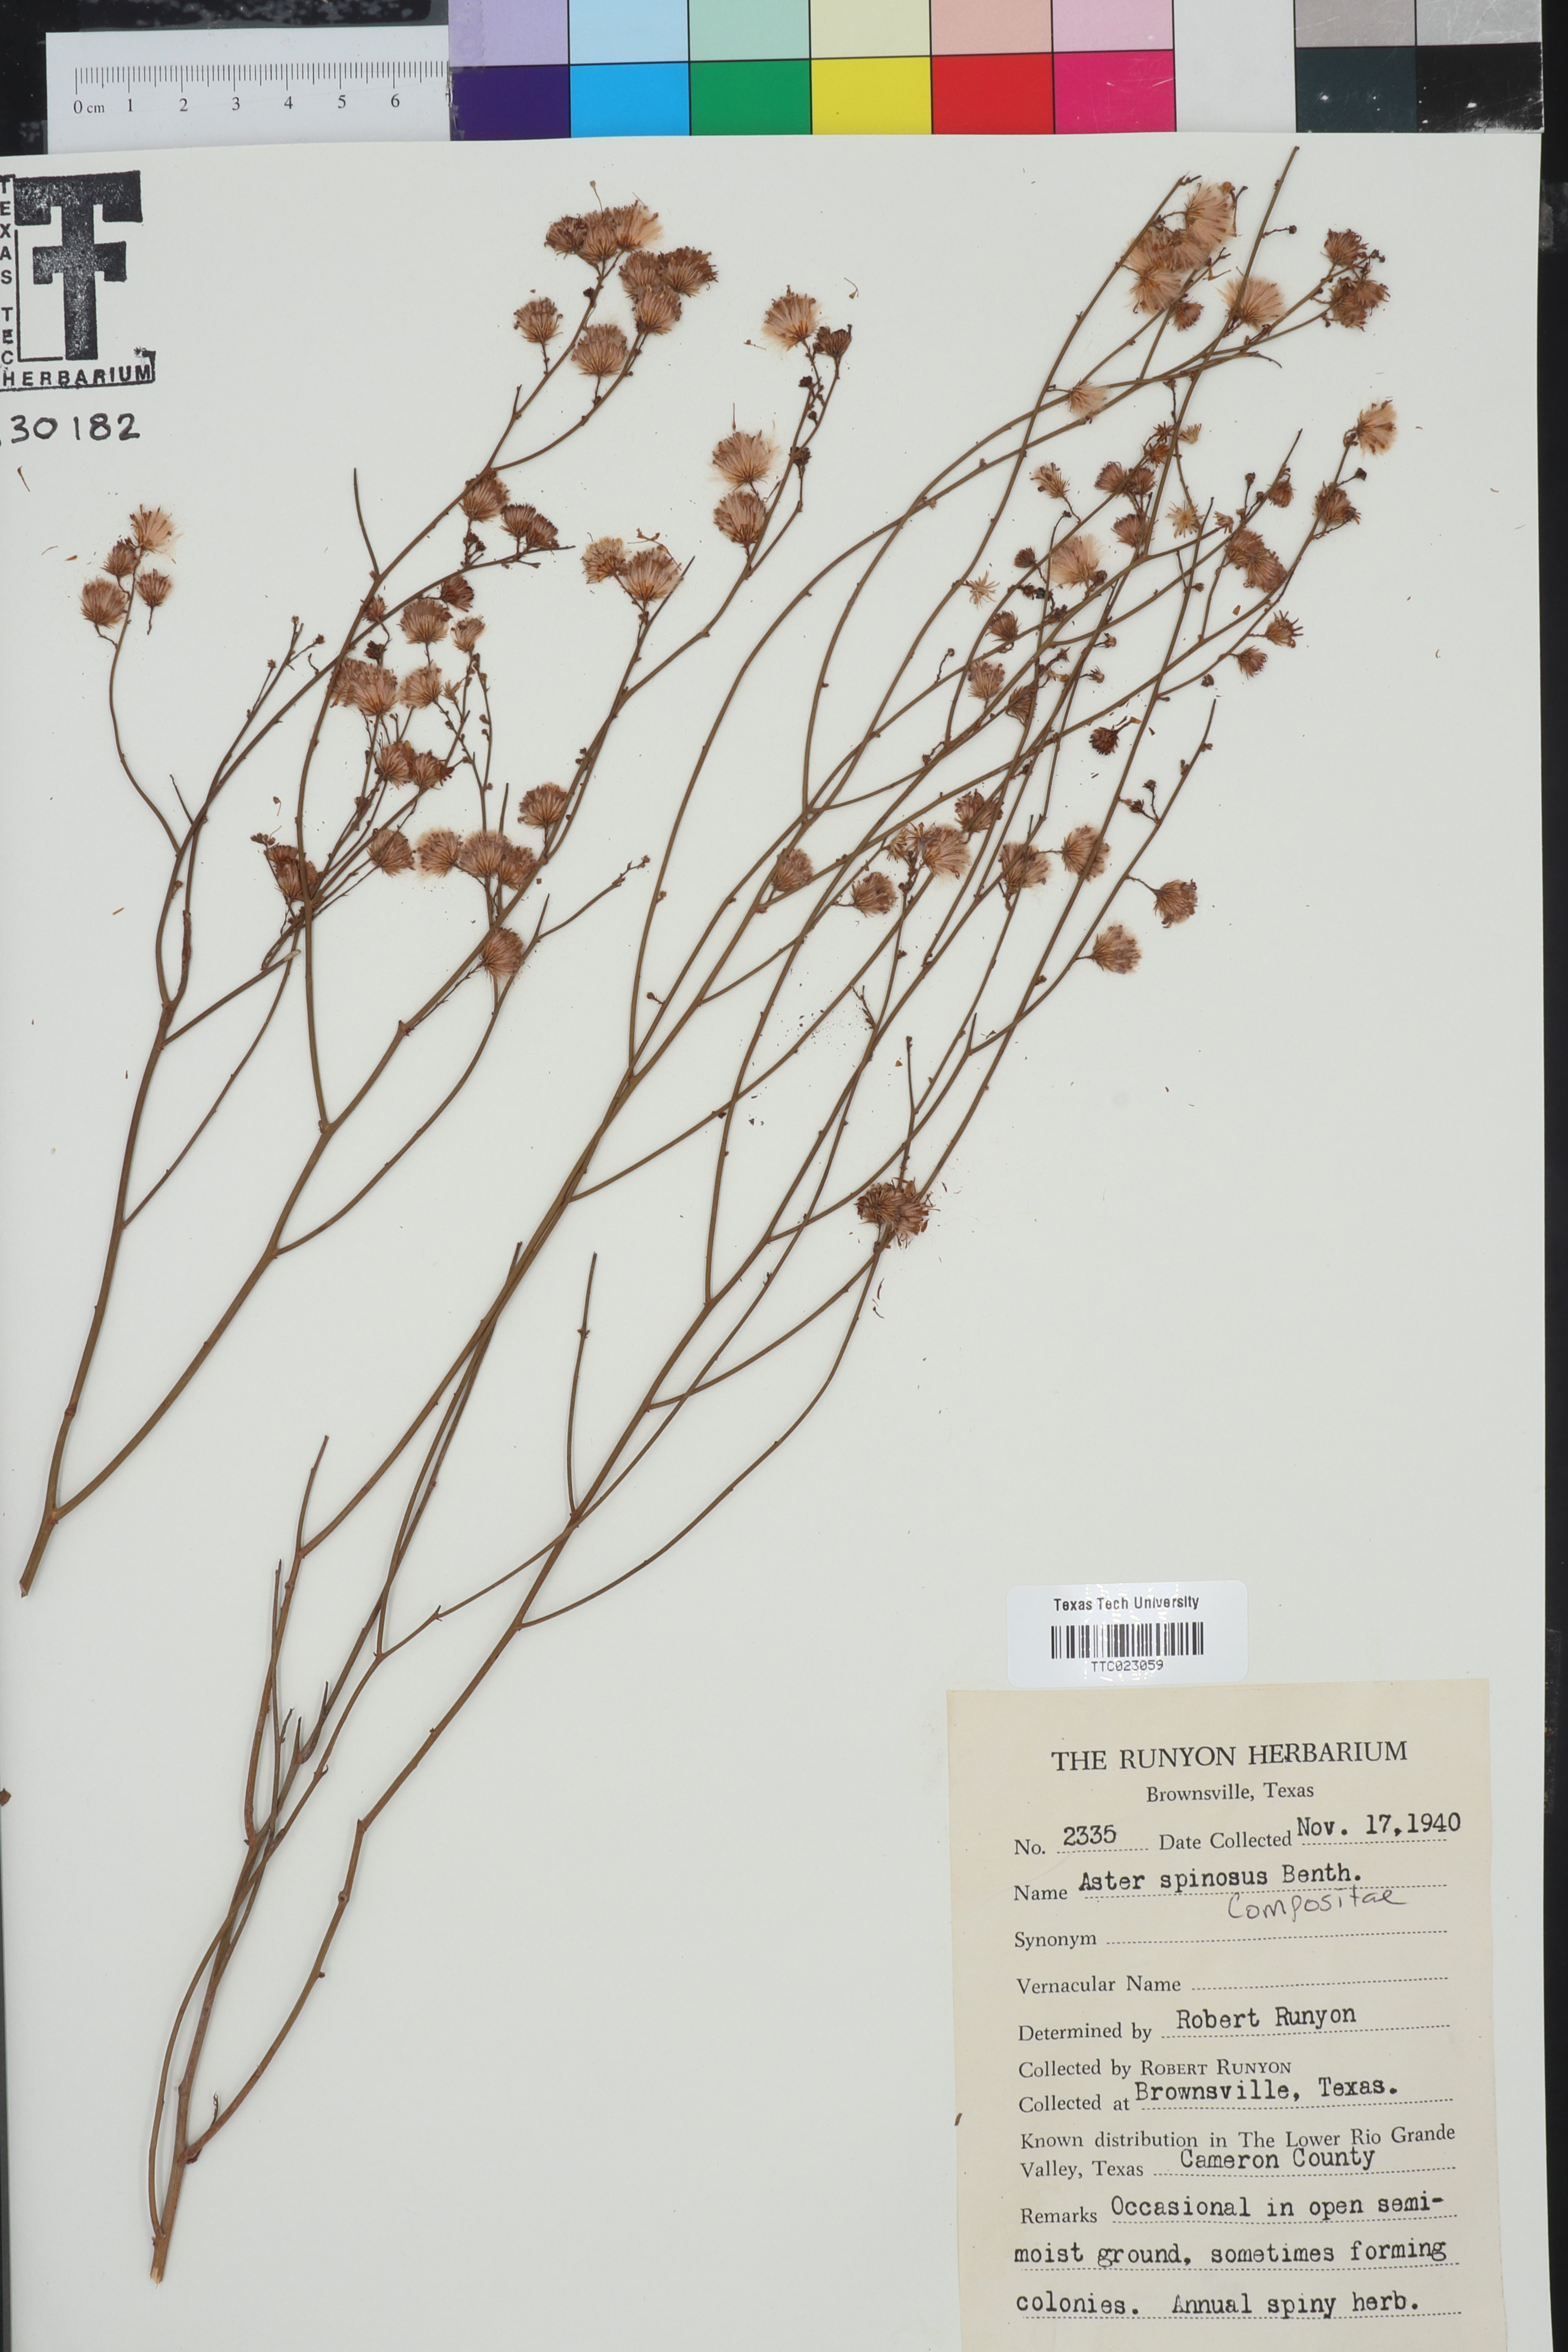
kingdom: Plantae
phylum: Tracheophyta
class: Magnoliopsida
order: Asterales
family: Asteraceae
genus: Chloracantha
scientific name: Chloracantha spinosa
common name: Mexican devilweed
